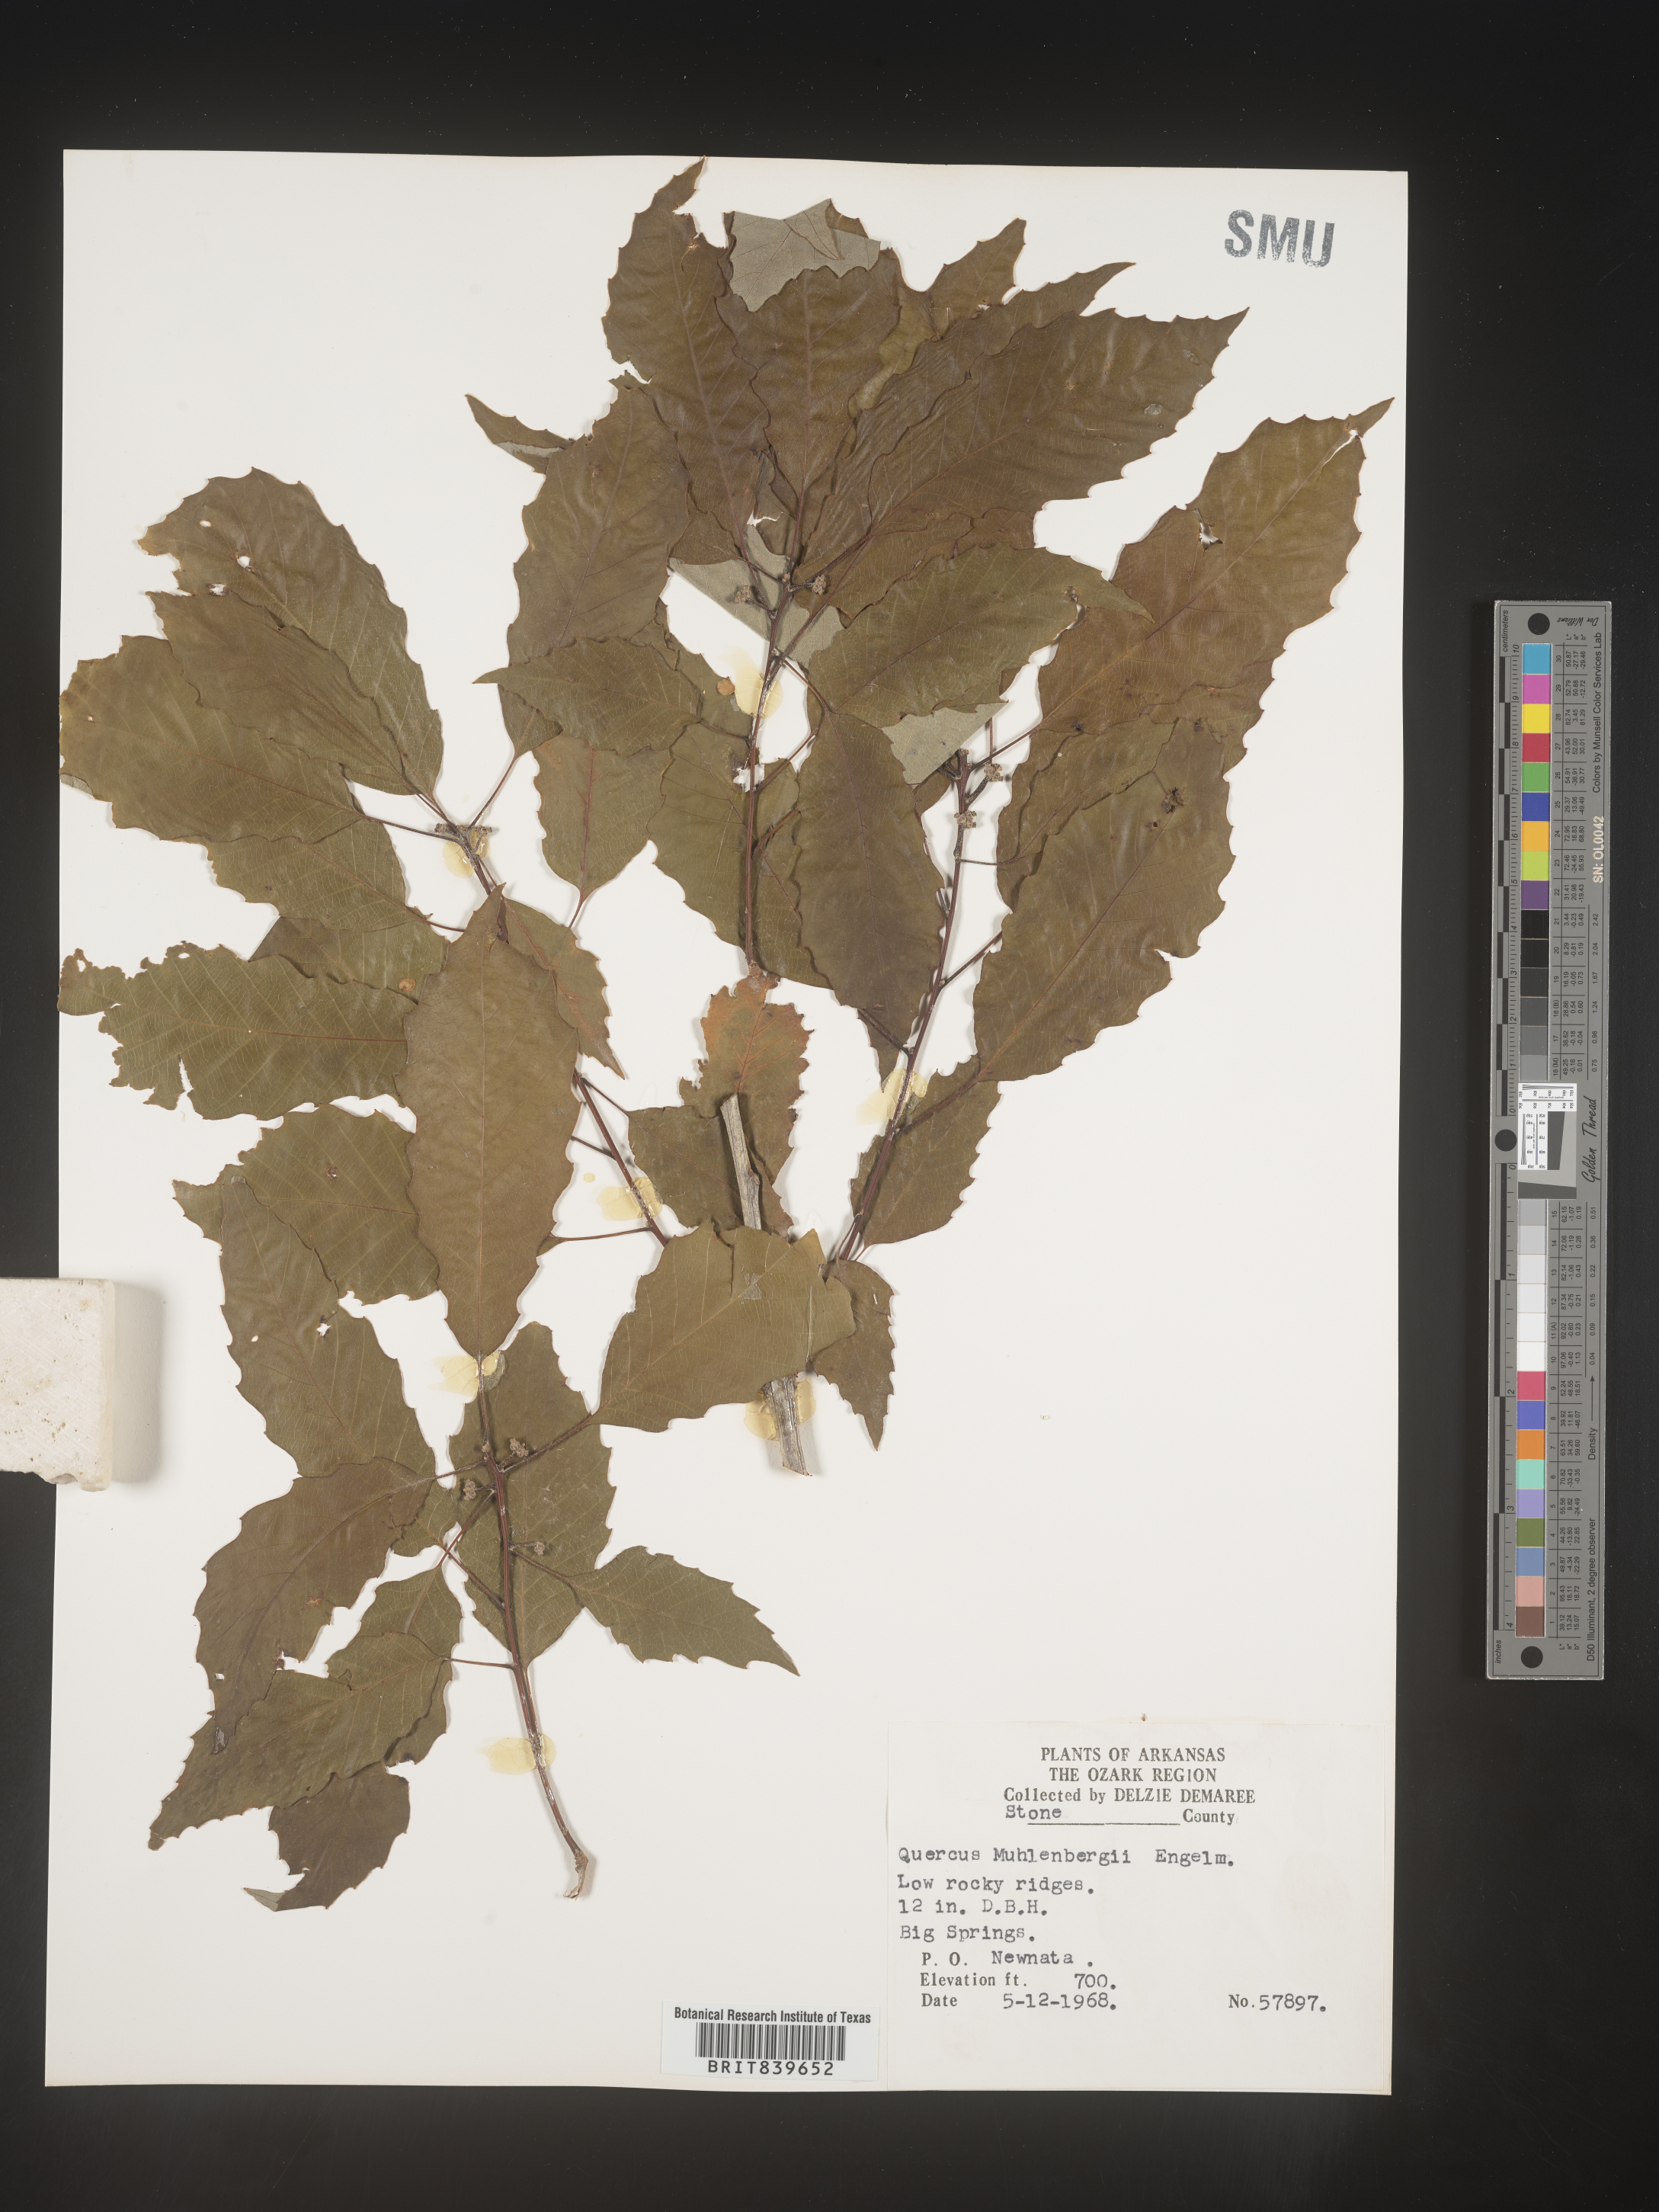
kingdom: Plantae
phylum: Tracheophyta
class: Magnoliopsida
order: Fagales
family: Fagaceae
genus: Quercus
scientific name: Quercus muehlenbergii
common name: Chinkapin oak
